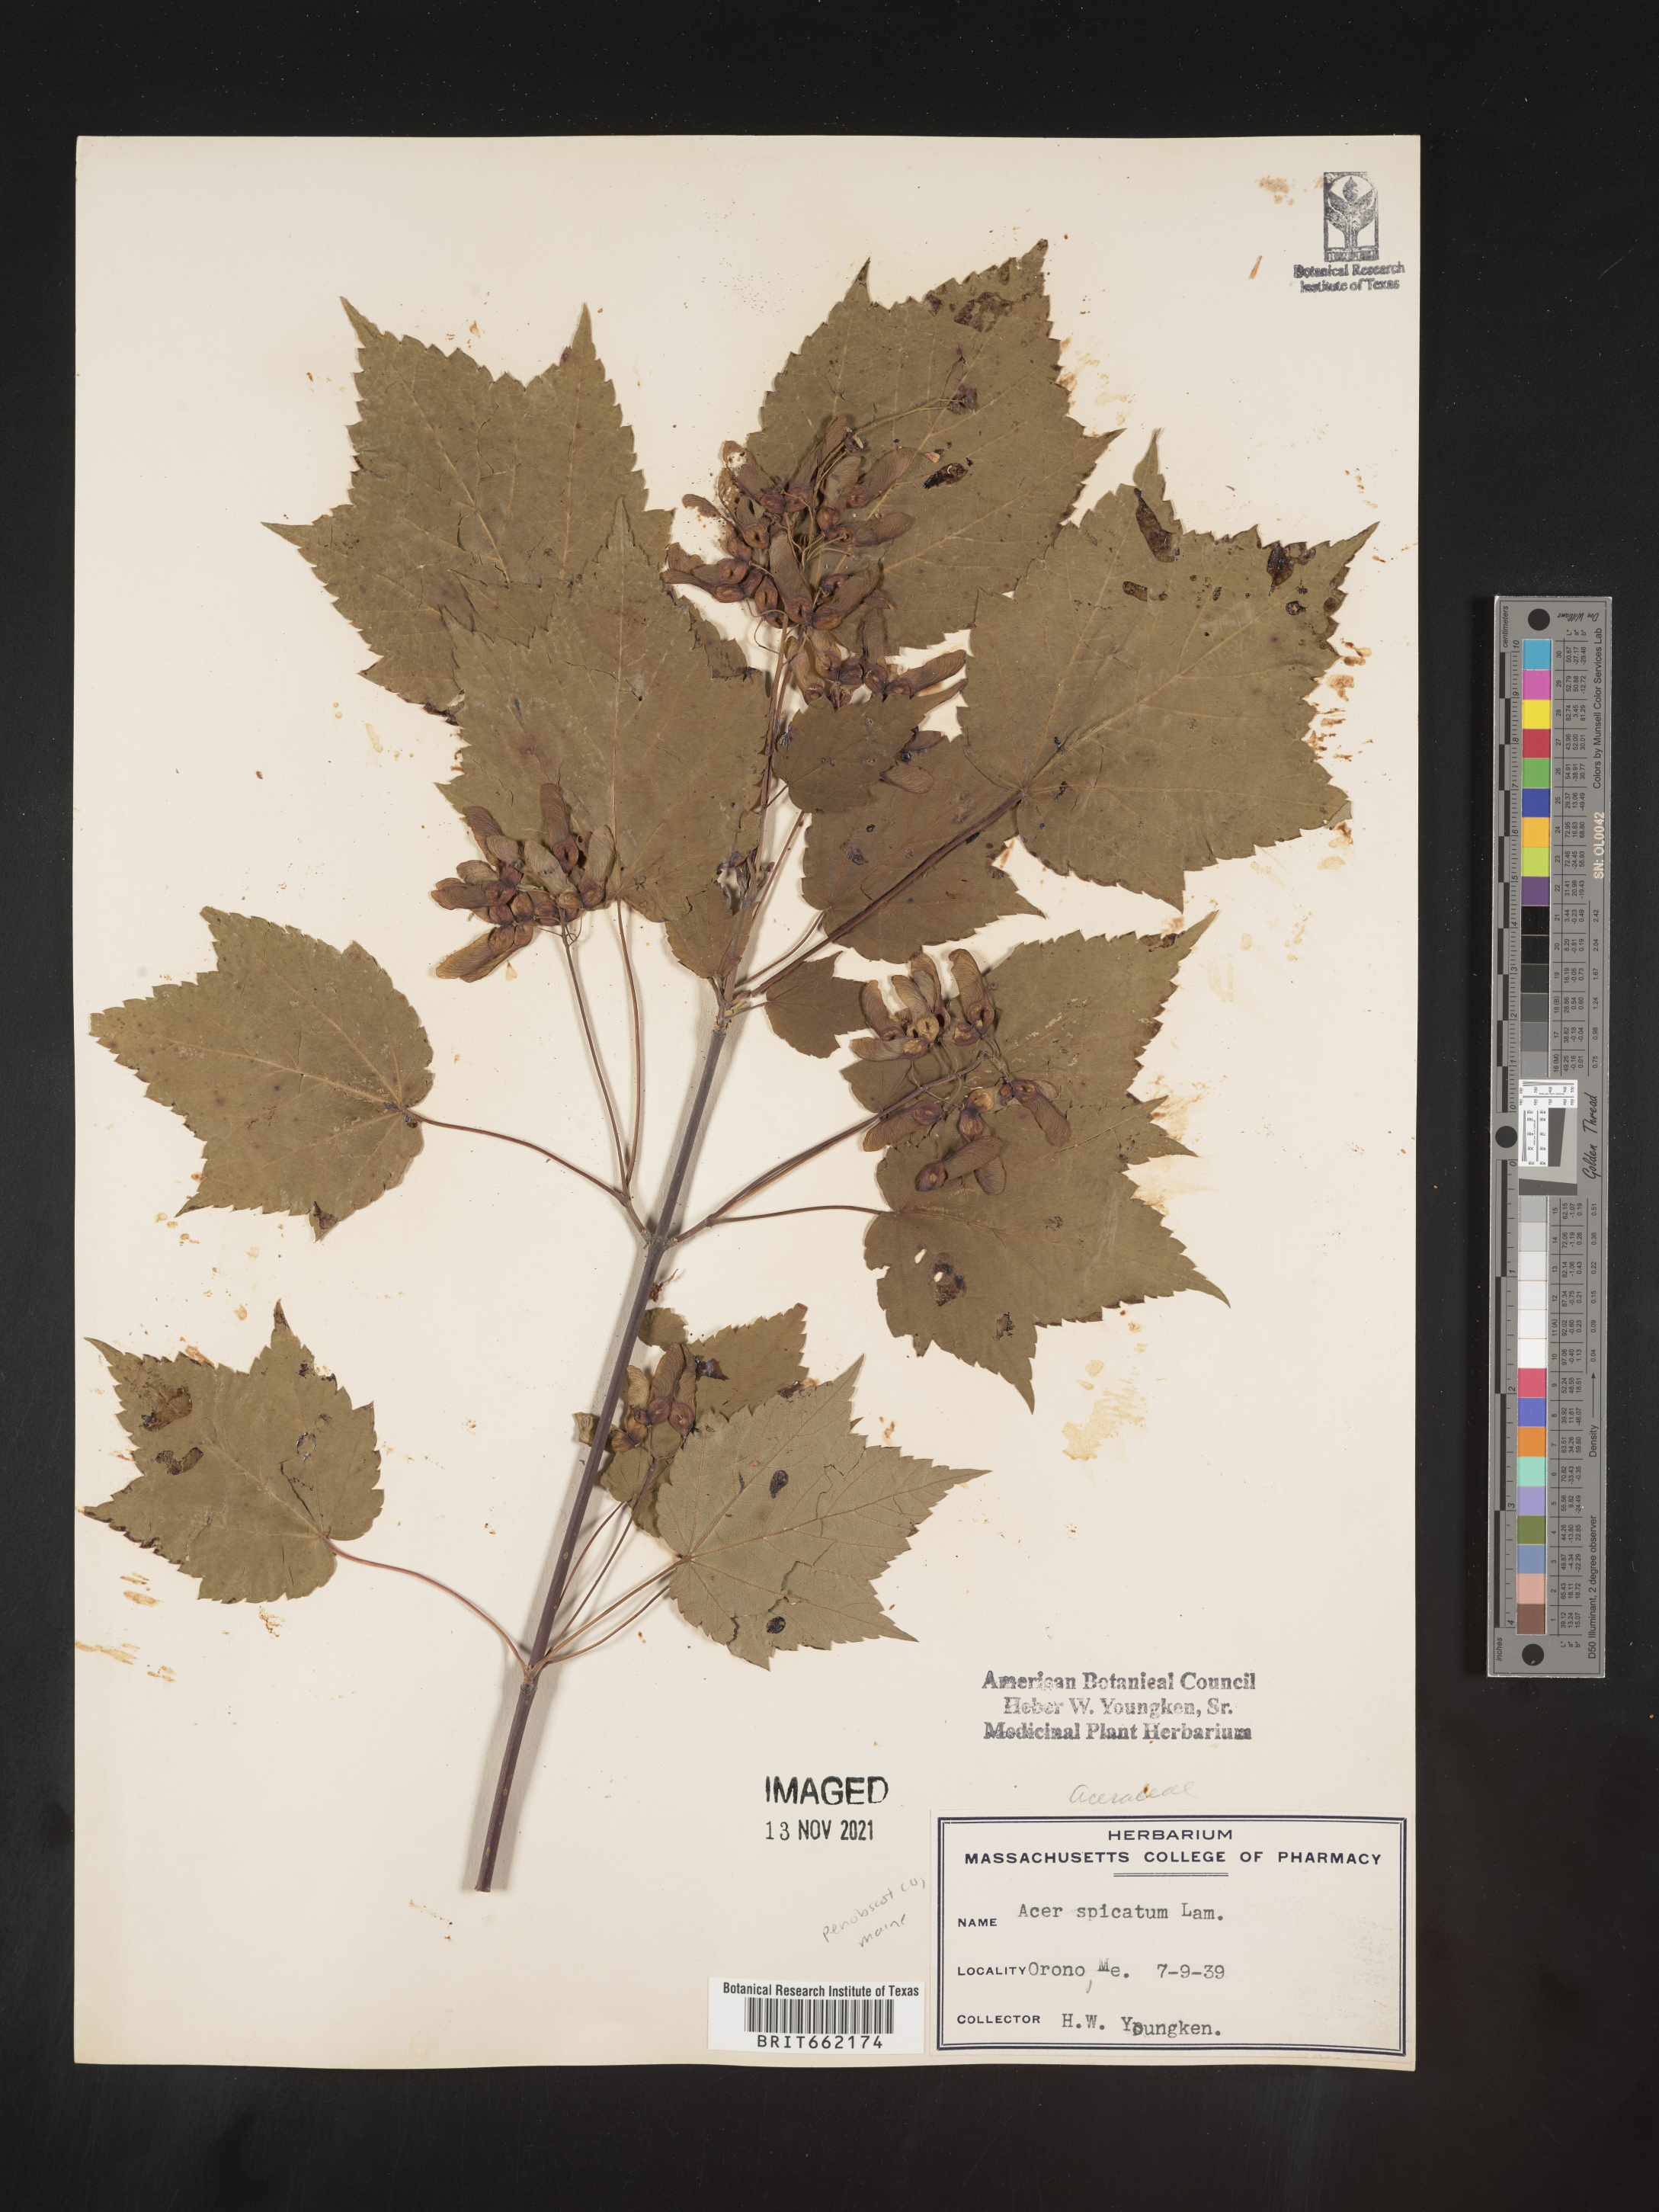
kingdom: Plantae
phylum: Tracheophyta
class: Magnoliopsida
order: Sapindales
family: Sapindaceae
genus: Acer
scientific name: Acer spicatum
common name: Mountain maple
